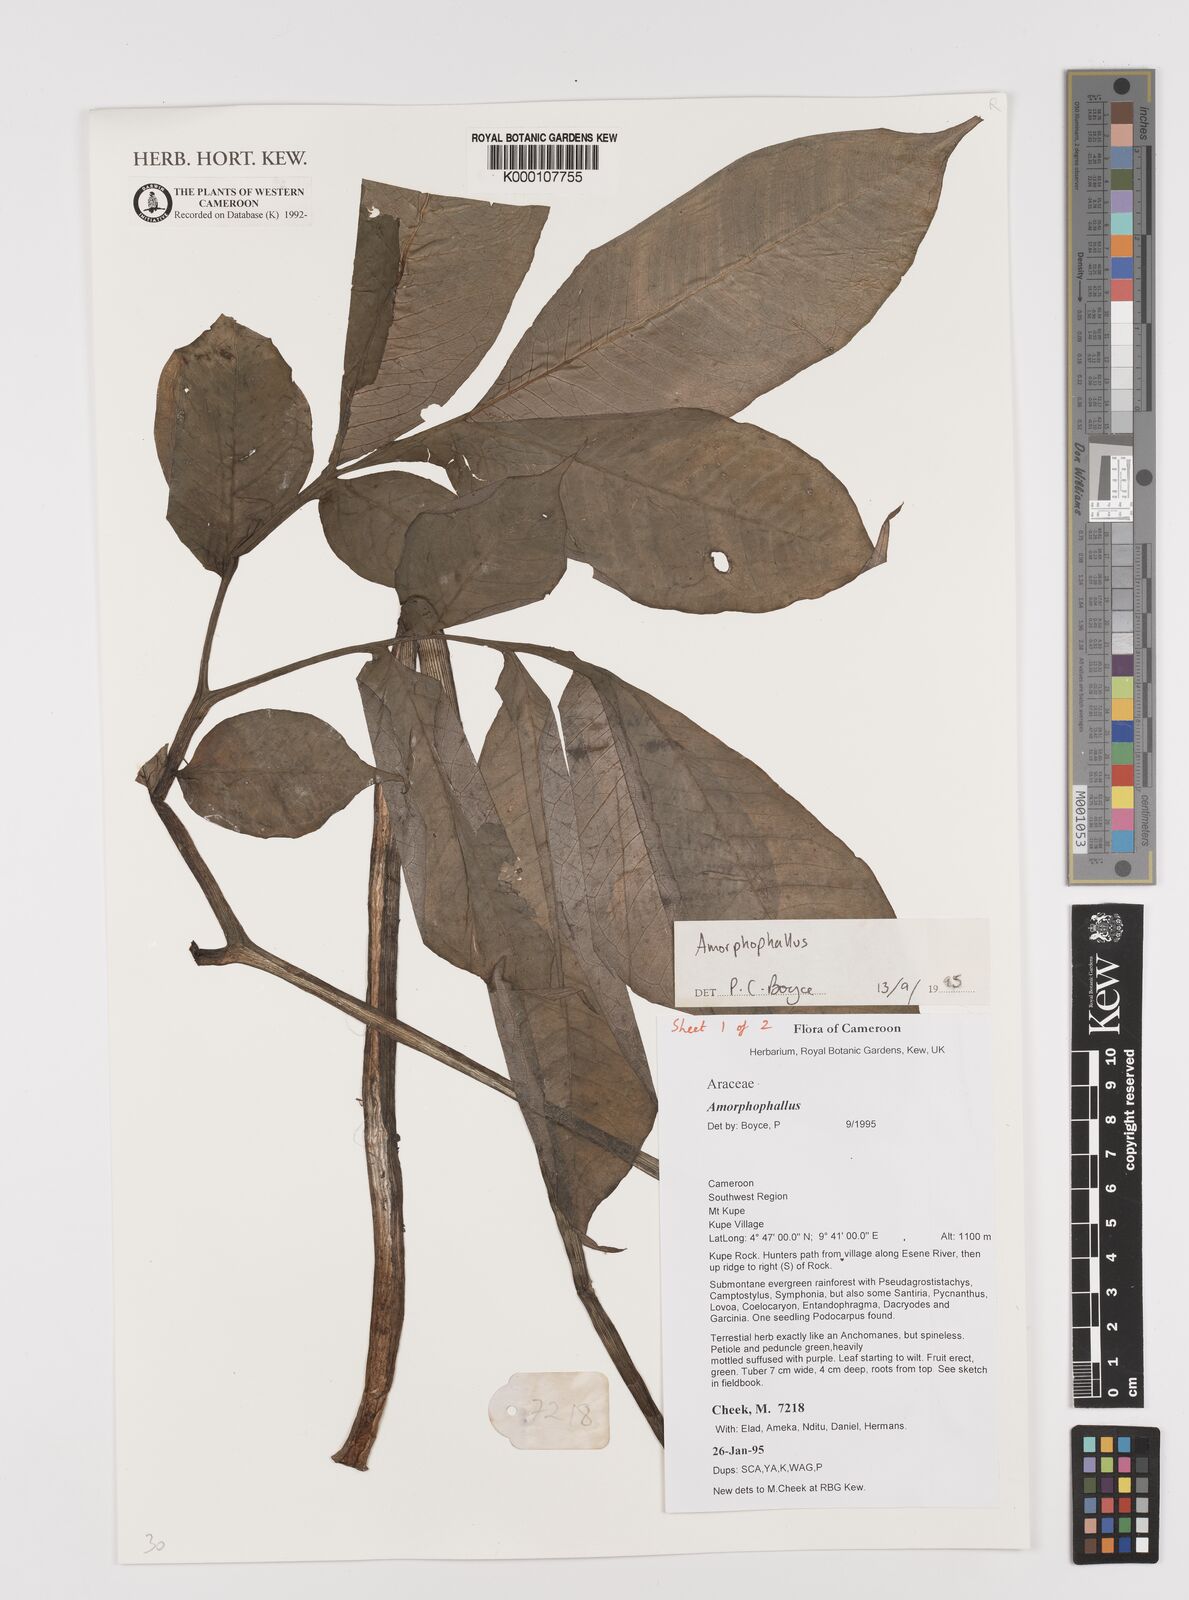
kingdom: Plantae
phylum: Tracheophyta
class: Liliopsida
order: Alismatales
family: Araceae
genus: Amorphophallus
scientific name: Amorphophallus
